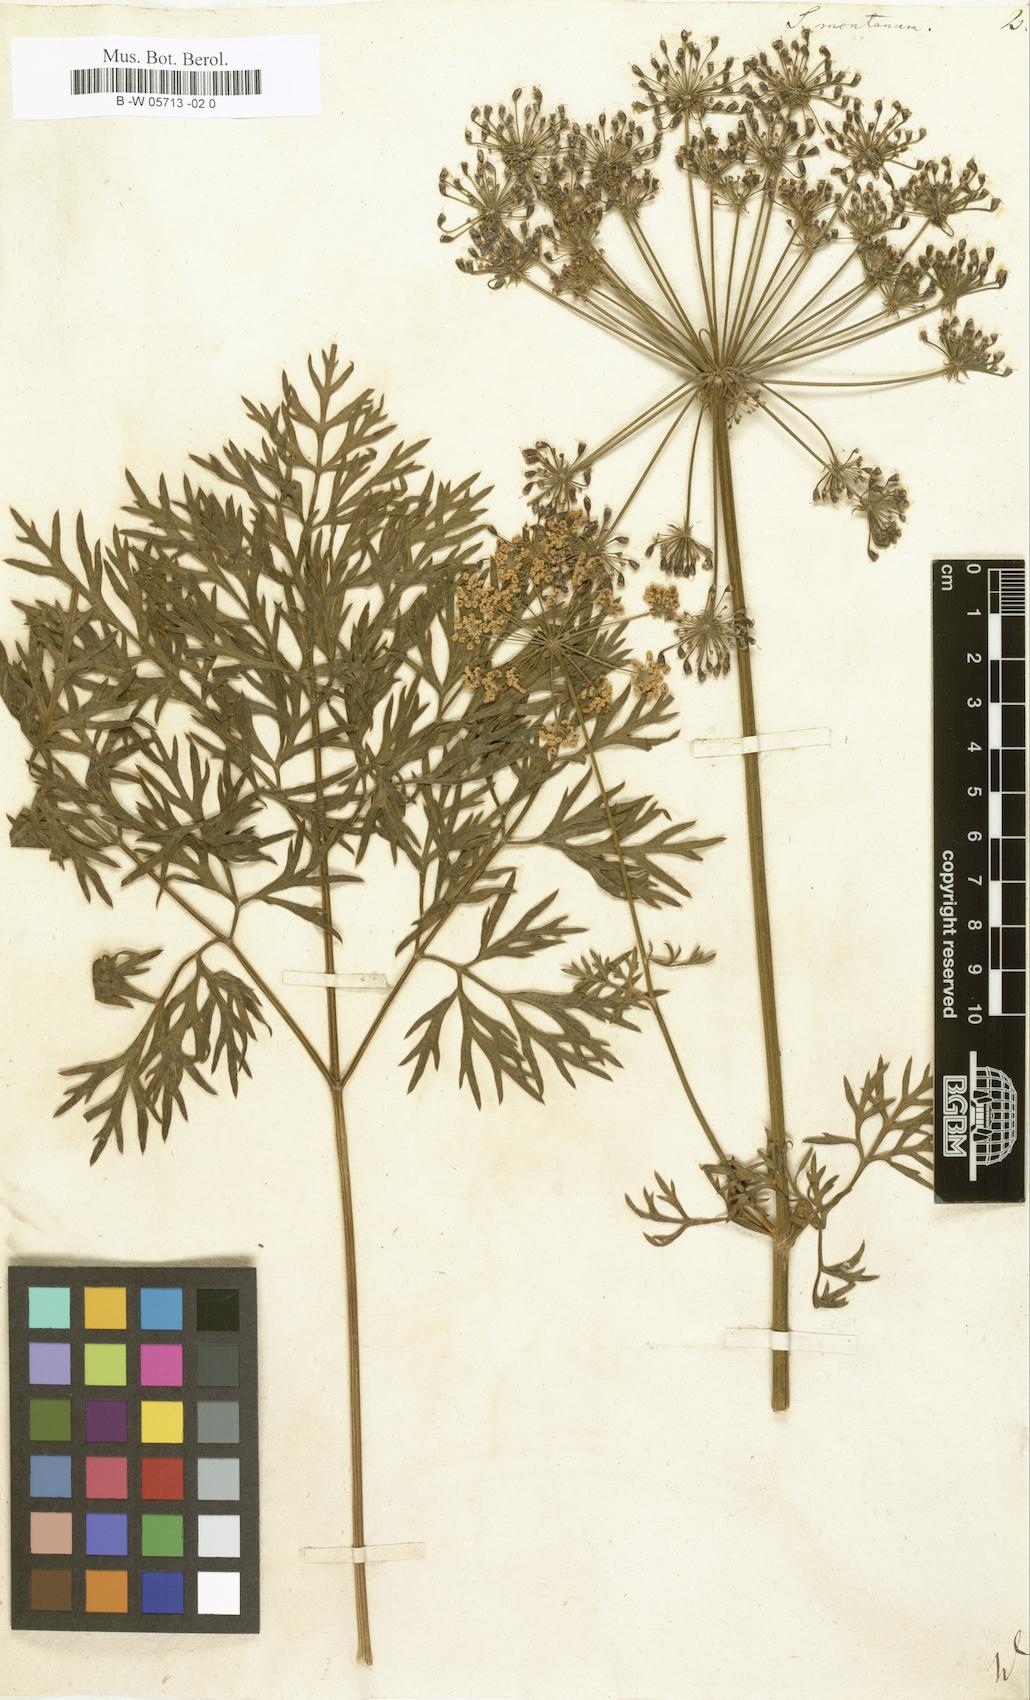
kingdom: Plantae
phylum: Tracheophyta
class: Magnoliopsida
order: Apiales
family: Apiaceae
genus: Peucedanum
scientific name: Peucedanum austriacum
